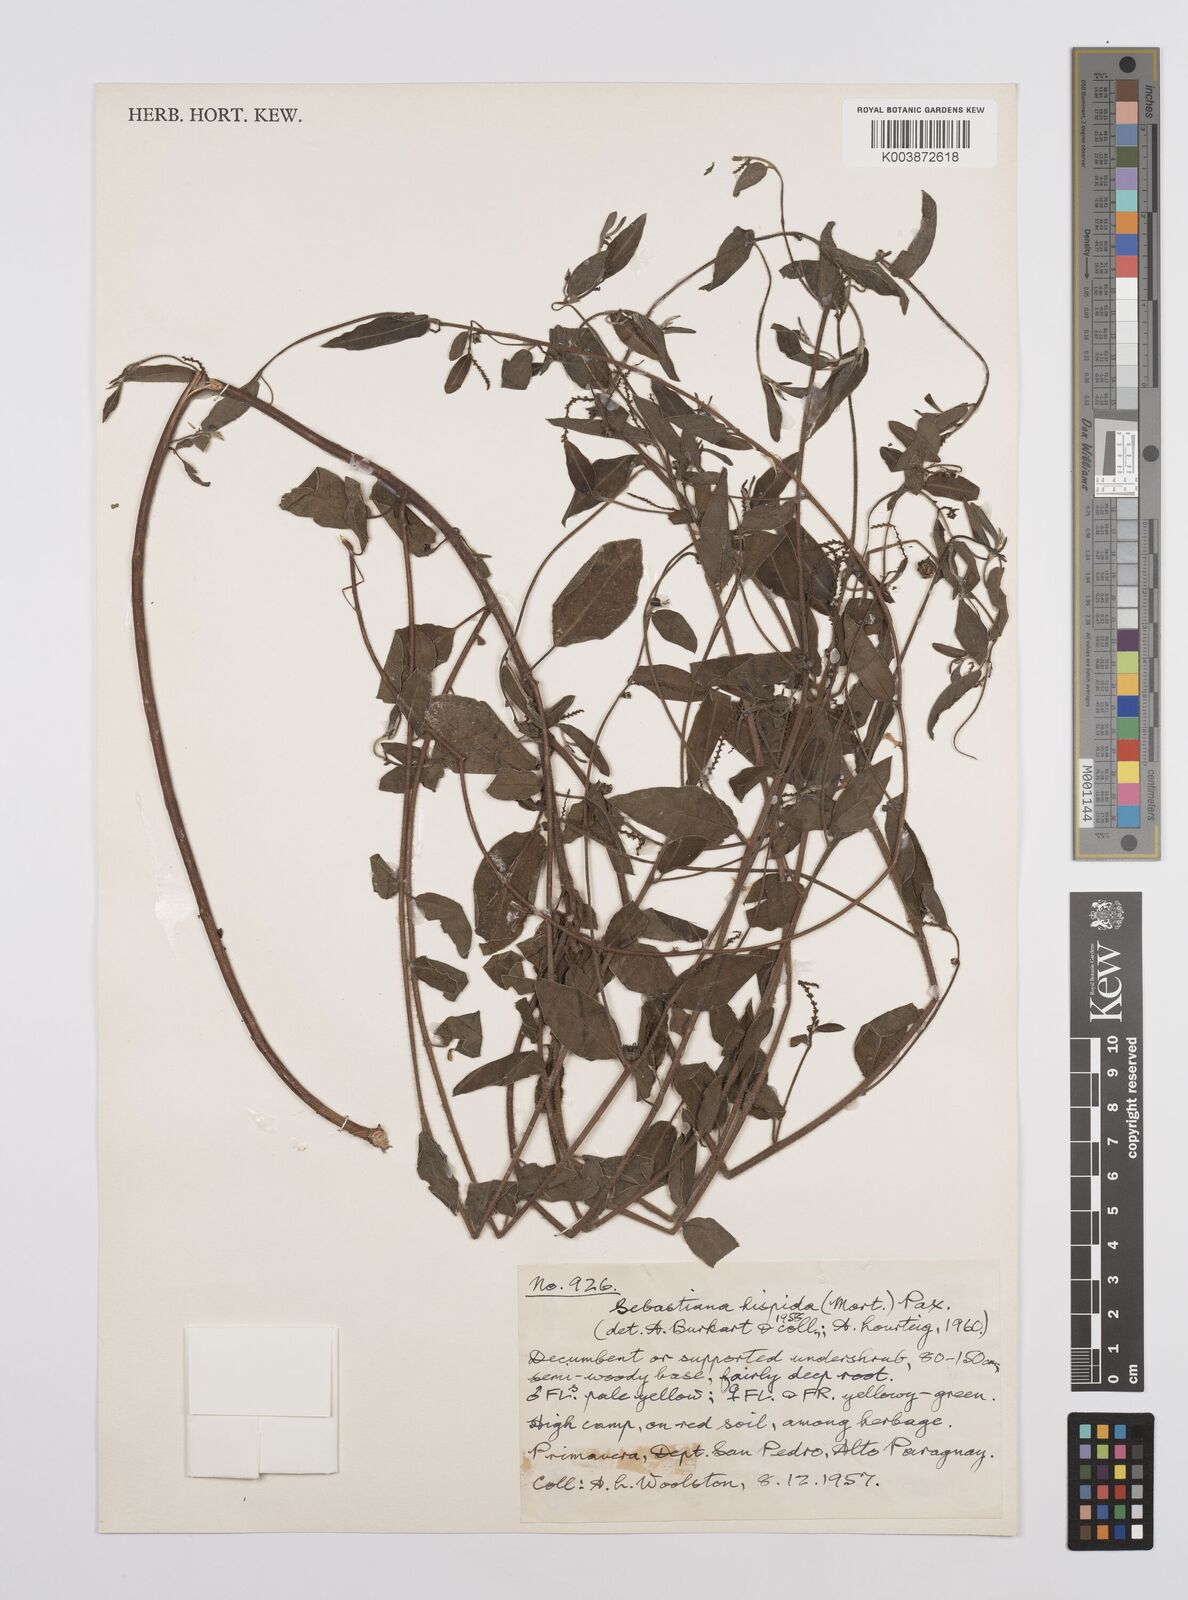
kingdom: Plantae
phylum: Tracheophyta
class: Magnoliopsida
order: Malpighiales
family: Euphorbiaceae
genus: Microstachys
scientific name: Microstachys hispida
